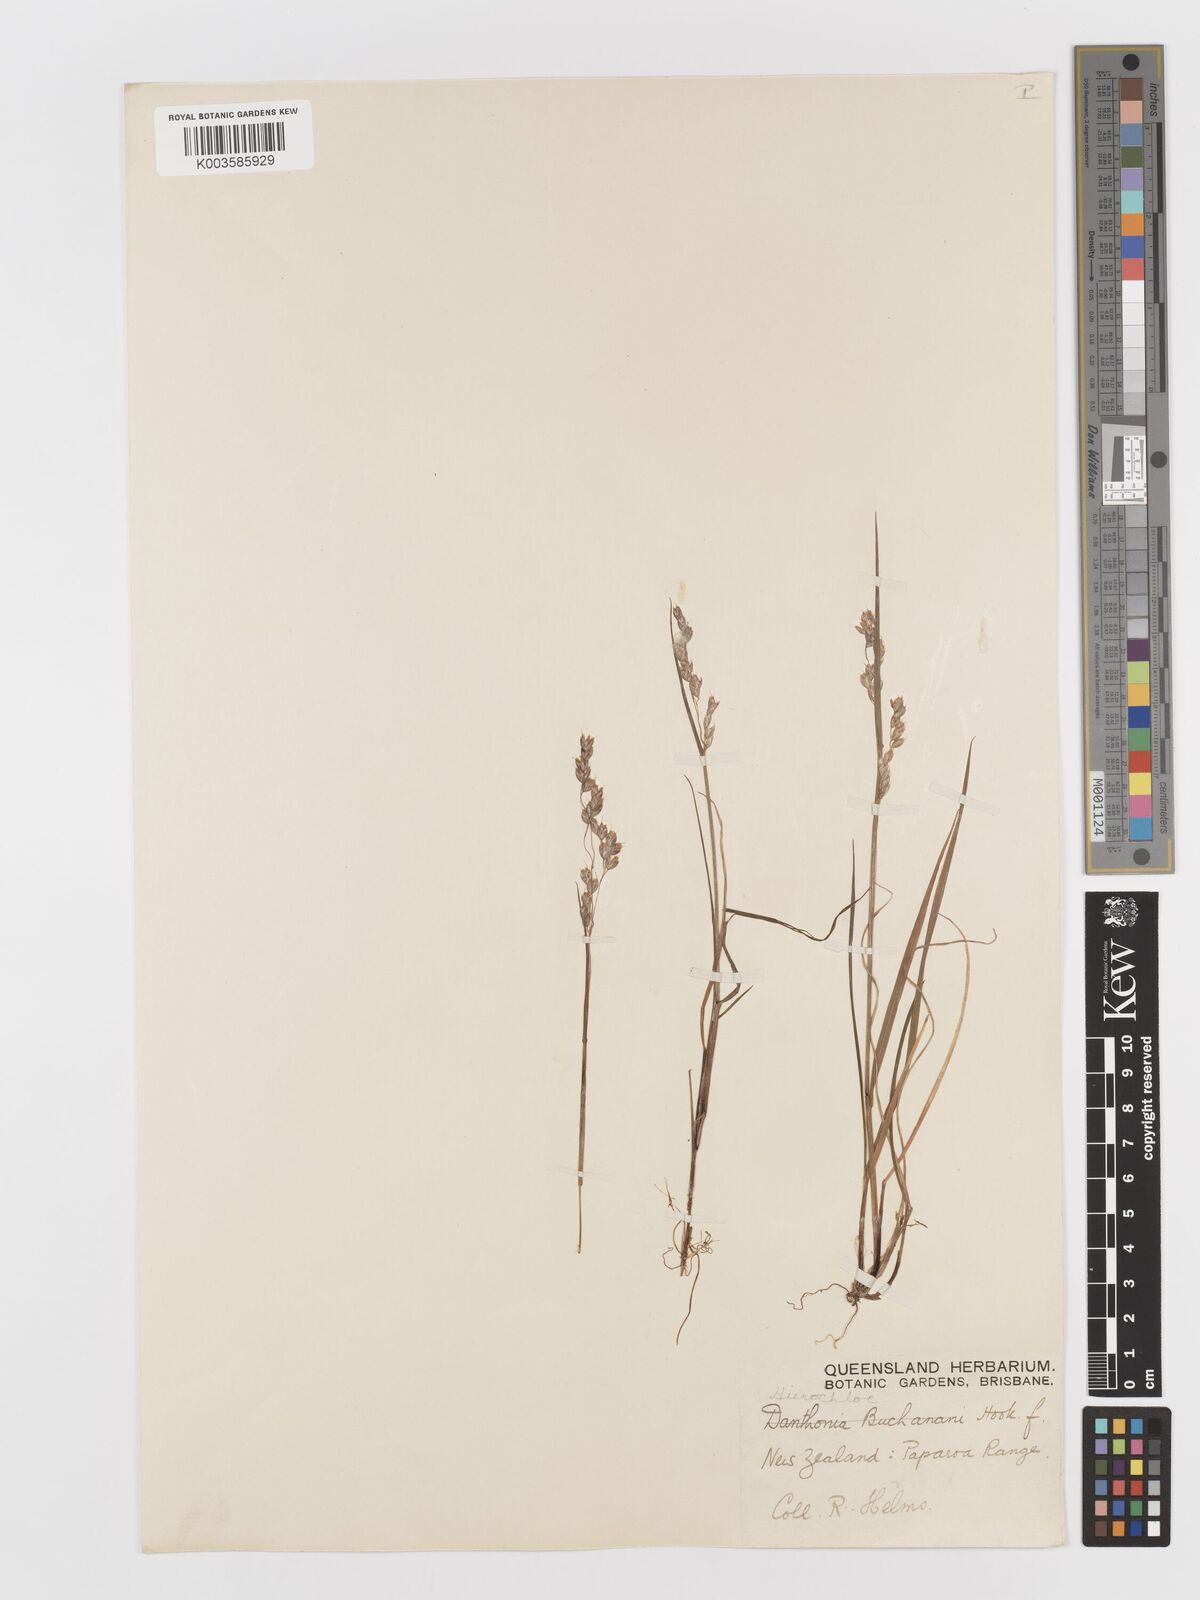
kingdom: Plantae
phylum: Tracheophyta
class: Liliopsida
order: Poales
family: Poaceae
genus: Anthoxanthum
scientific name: Anthoxanthum novae-zelandiae
